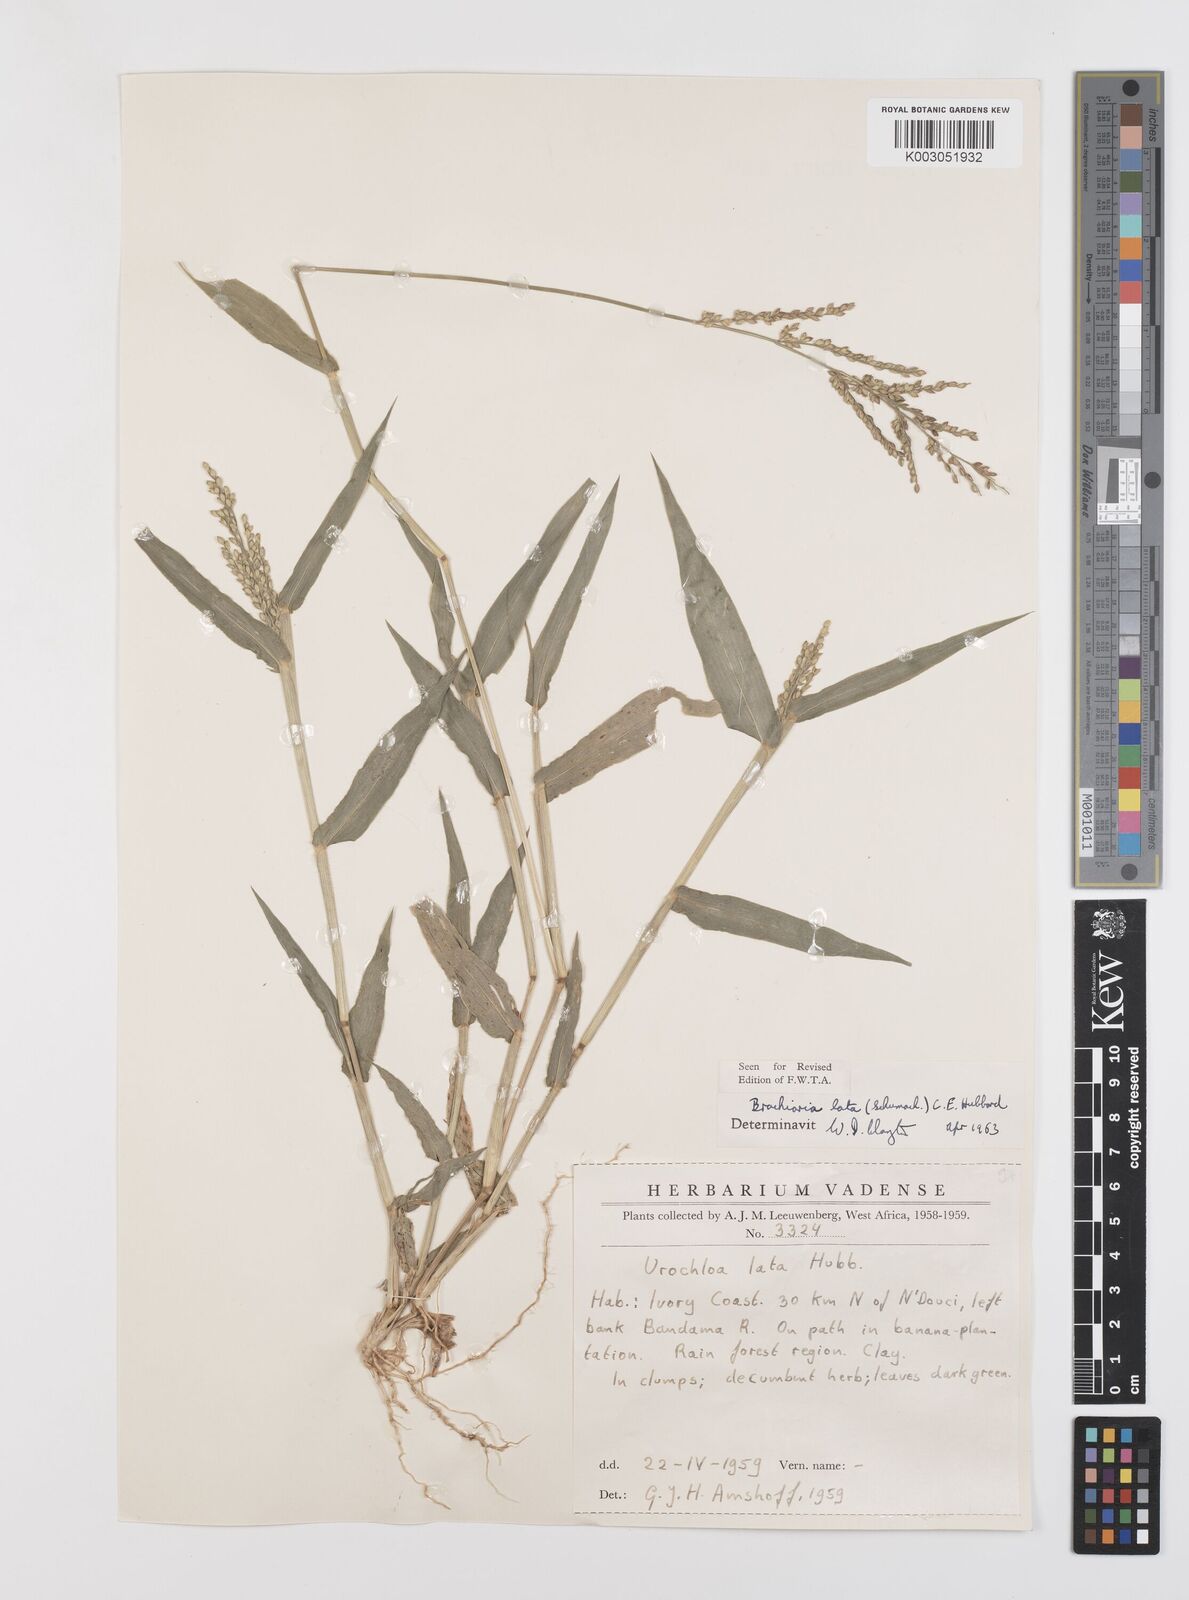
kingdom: Plantae
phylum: Tracheophyta
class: Liliopsida
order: Poales
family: Poaceae
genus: Urochloa
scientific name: Urochloa lata
